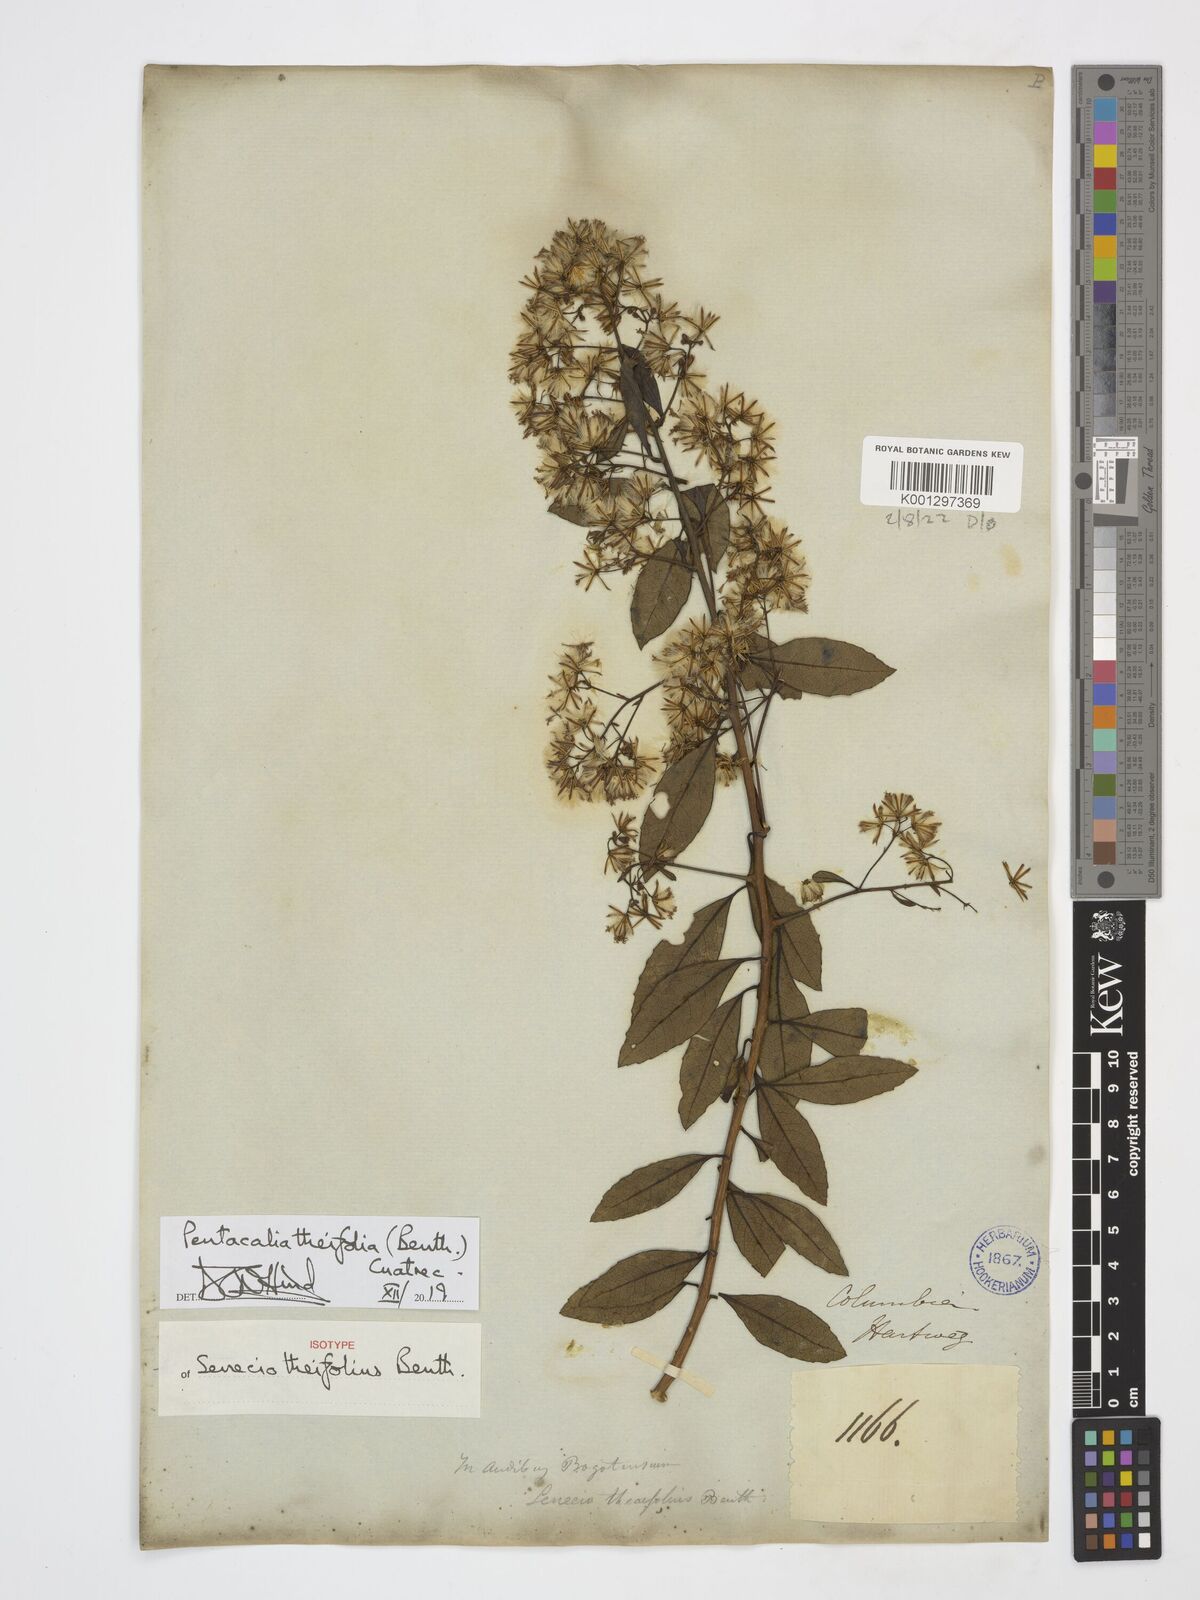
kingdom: Plantae
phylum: Tracheophyta
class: Magnoliopsida
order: Asterales
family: Asteraceae
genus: Pentacalia
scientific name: Pentacalia theifolia
